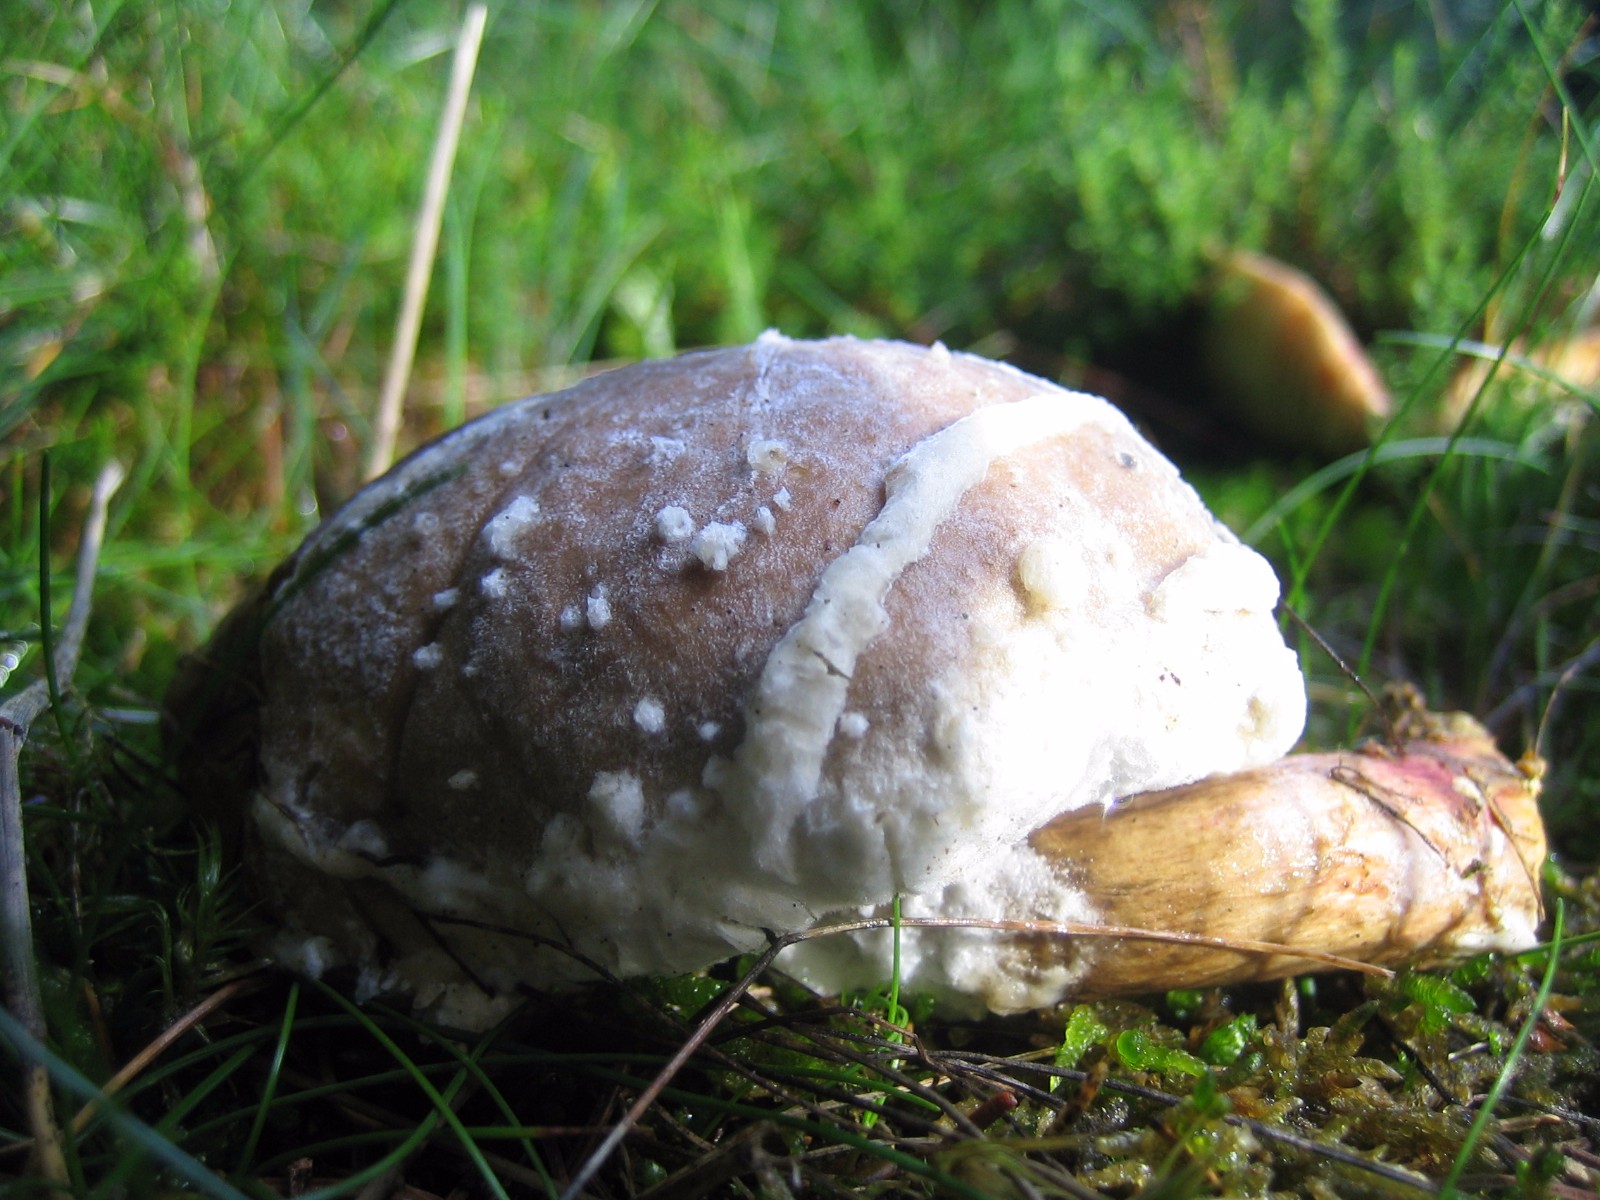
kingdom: Fungi
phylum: Ascomycota
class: Sordariomycetes
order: Hypocreales
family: Hypocreaceae
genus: Hypomyces
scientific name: Hypomyces
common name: snylteskorpe
